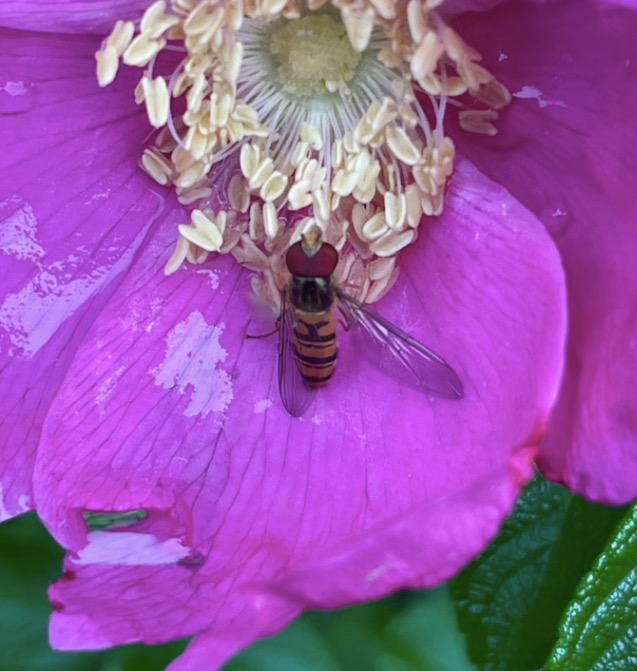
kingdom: Animalia
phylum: Arthropoda
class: Insecta
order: Diptera
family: Syrphidae
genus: Episyrphus
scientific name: Episyrphus balteatus
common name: Dobbeltbåndet svirreflue
